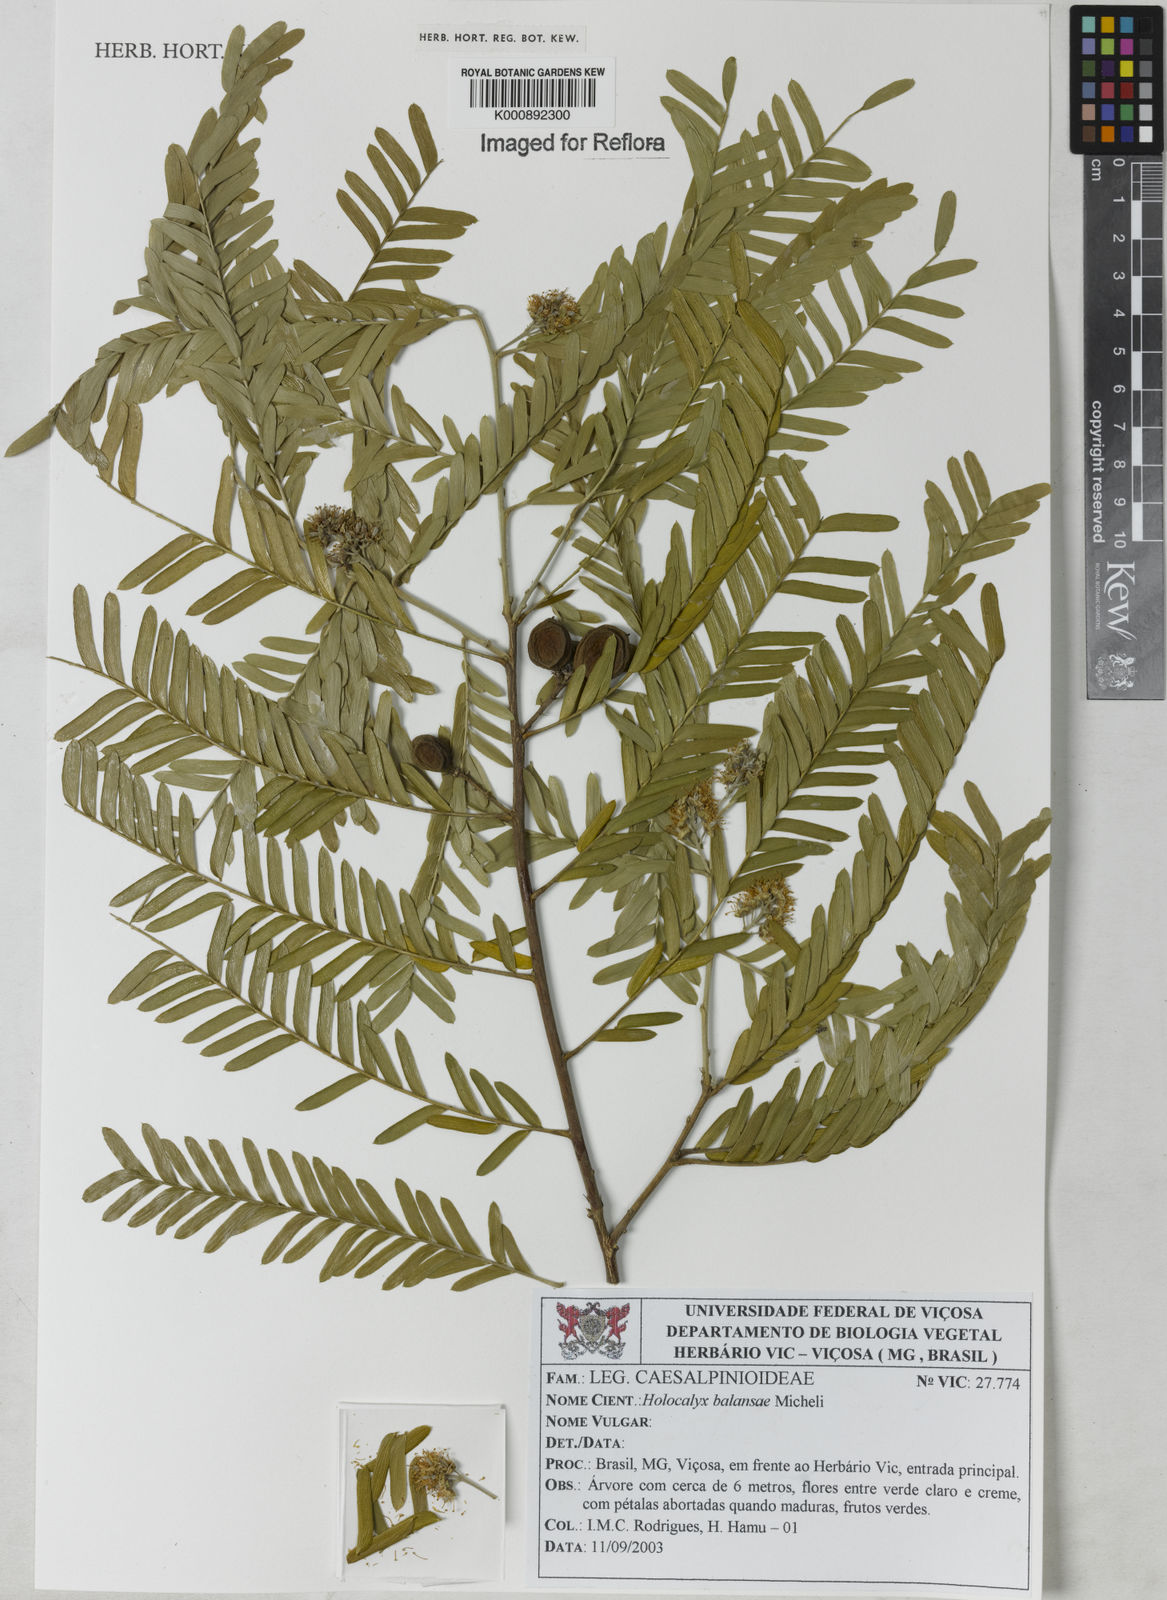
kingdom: Plantae
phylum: Tracheophyta
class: Magnoliopsida
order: Fabales
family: Fabaceae
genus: Holocalyx
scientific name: Holocalyx
